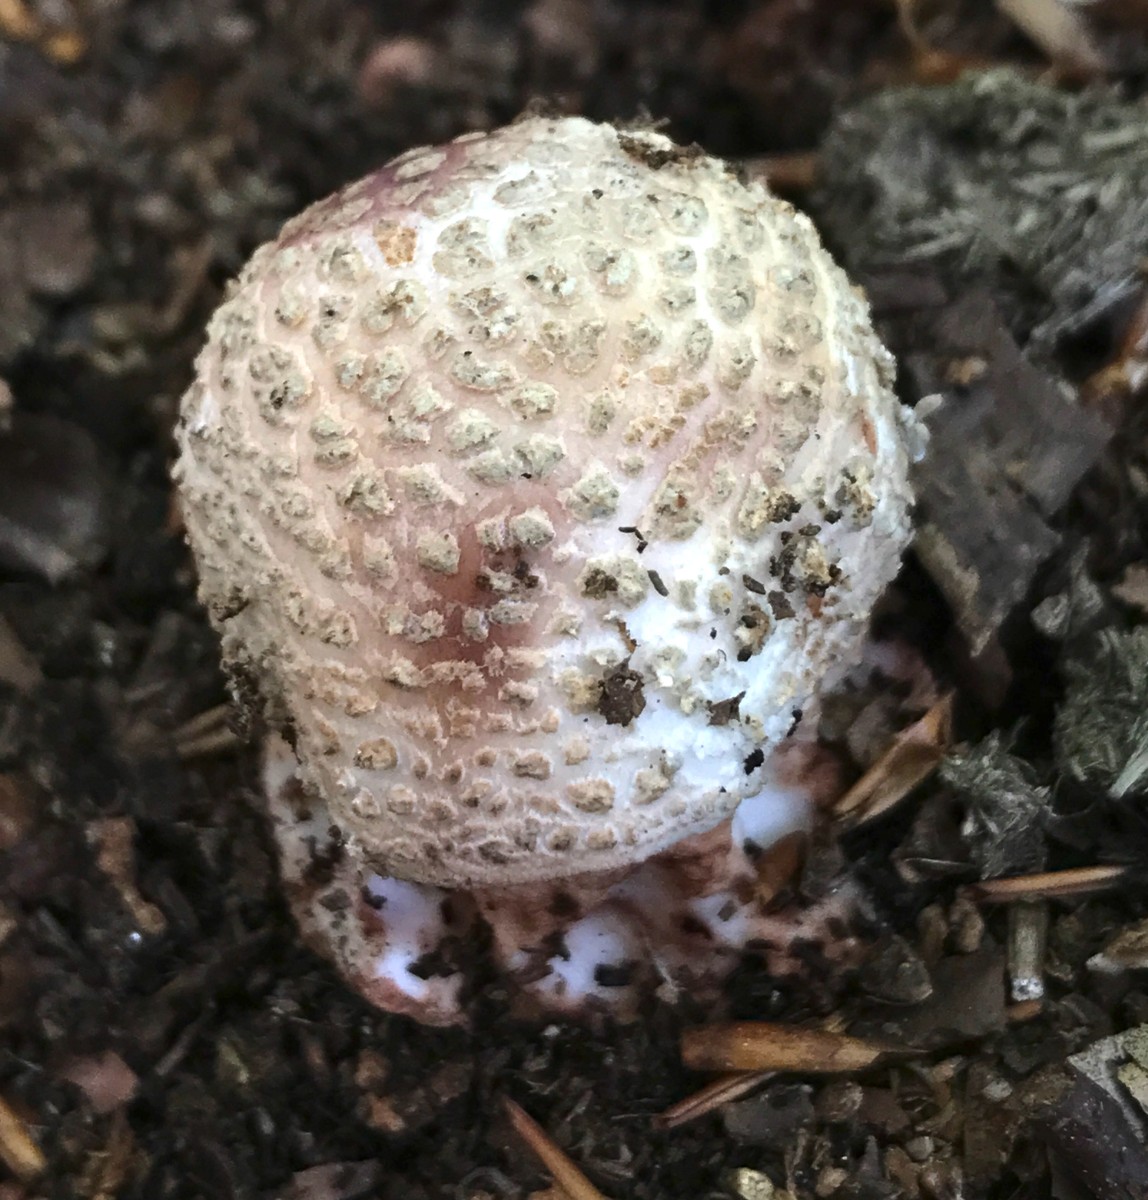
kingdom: Fungi
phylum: Basidiomycota
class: Agaricomycetes
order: Agaricales
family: Amanitaceae
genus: Amanita
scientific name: Amanita rubescens
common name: rødmende fluesvamp
